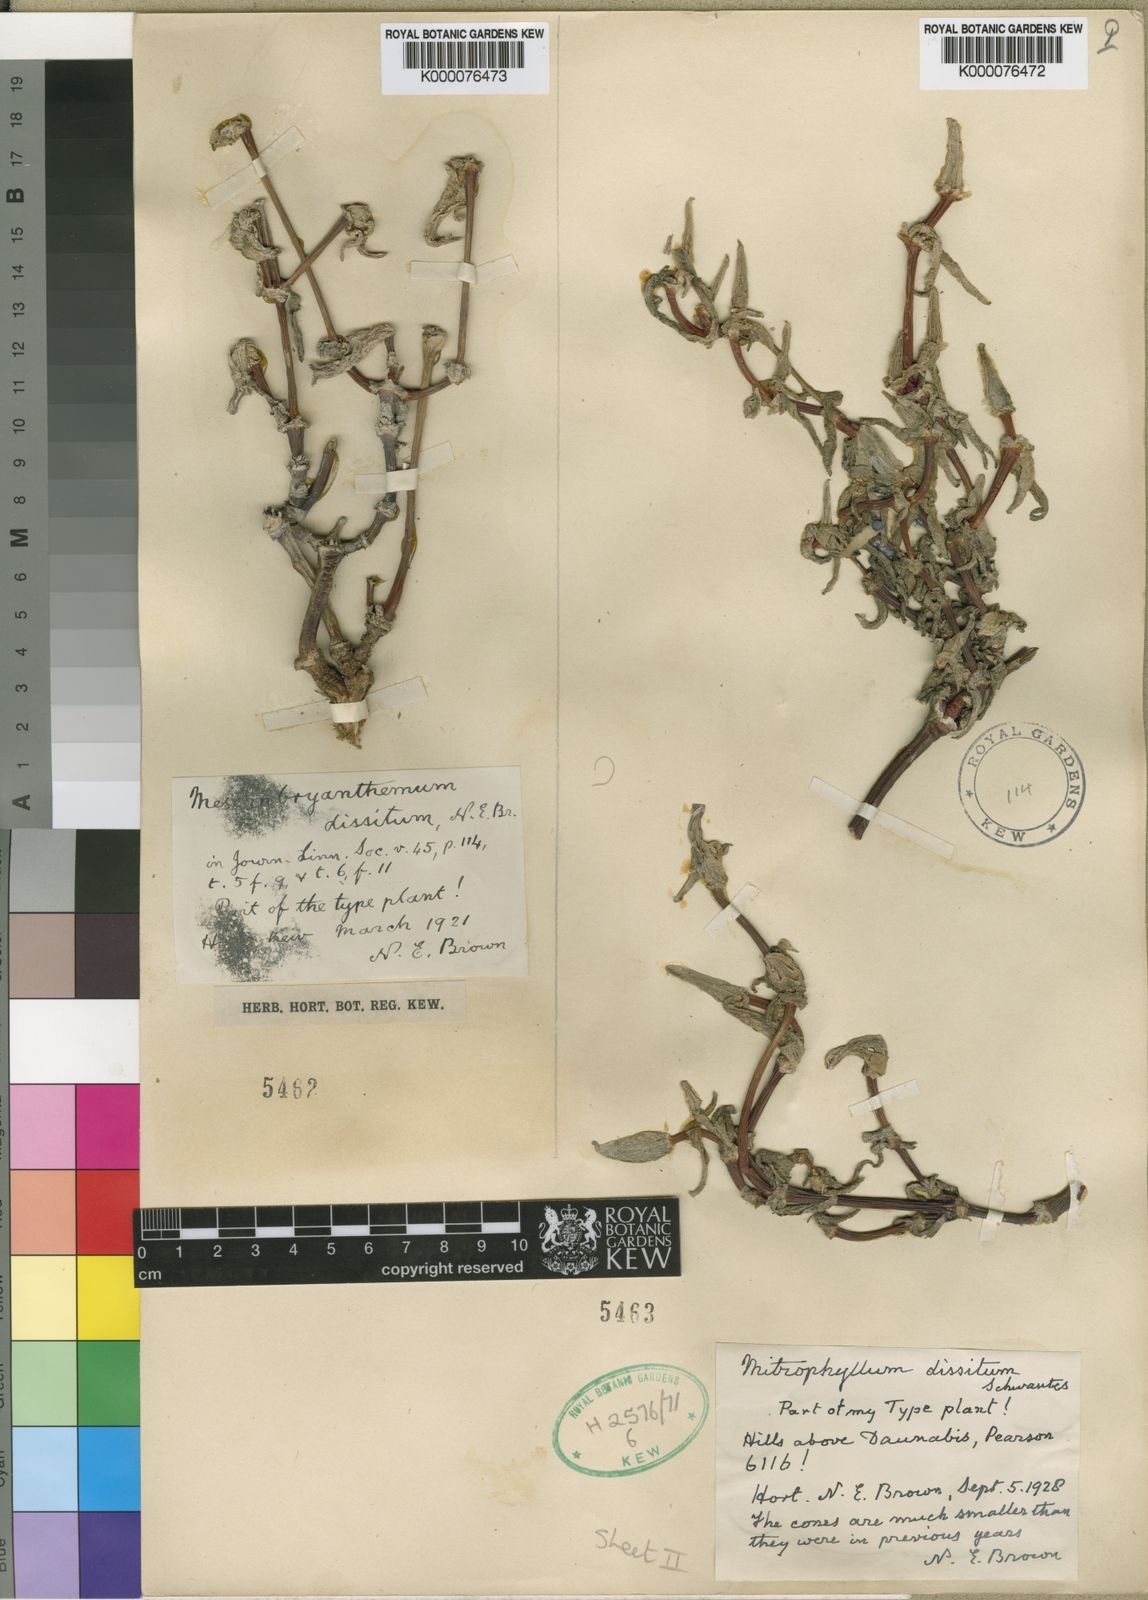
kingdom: Plantae
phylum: Tracheophyta
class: Magnoliopsida
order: Caryophyllales
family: Aizoaceae
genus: Mitrophyllum
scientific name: Mitrophyllum dissitum
